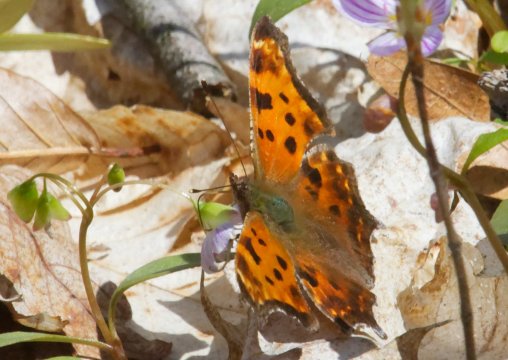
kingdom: Animalia
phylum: Arthropoda
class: Insecta
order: Lepidoptera
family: Nymphalidae
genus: Polygonia
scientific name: Polygonia comma
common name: Eastern Comma
